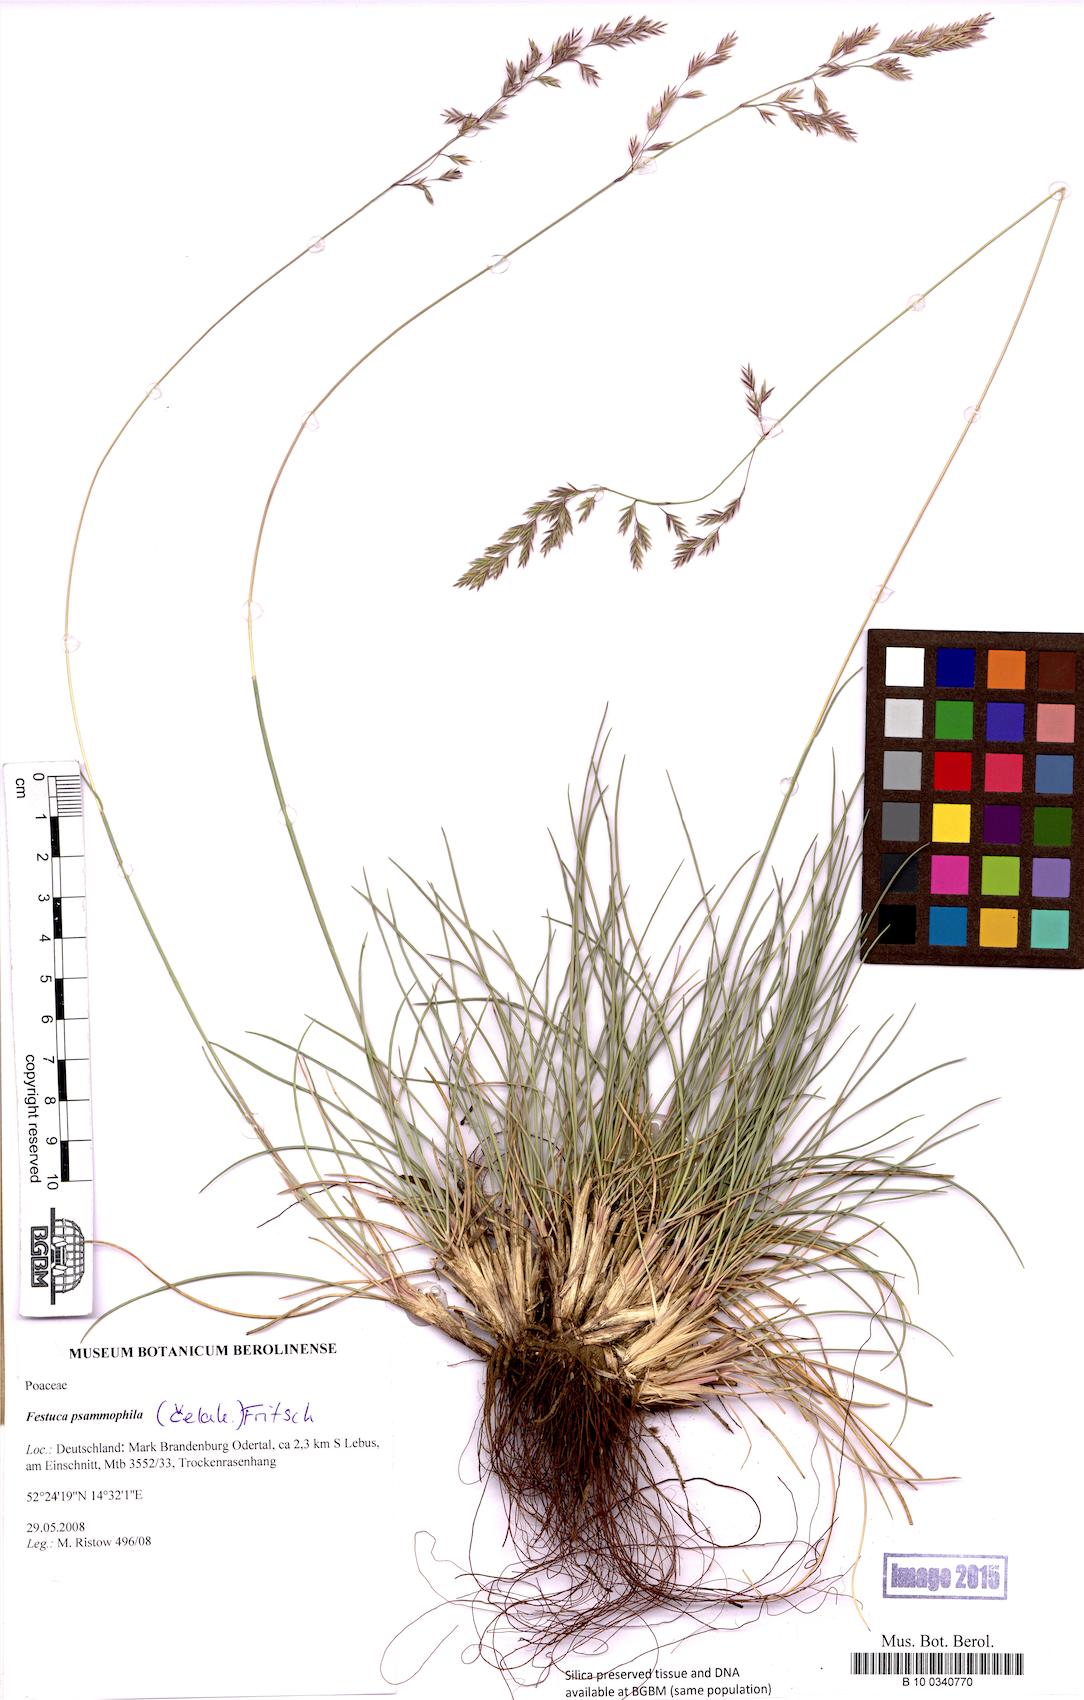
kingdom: Plantae
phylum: Tracheophyta
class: Liliopsida
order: Poales
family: Poaceae
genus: Festuca
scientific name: Festuca psammophila
